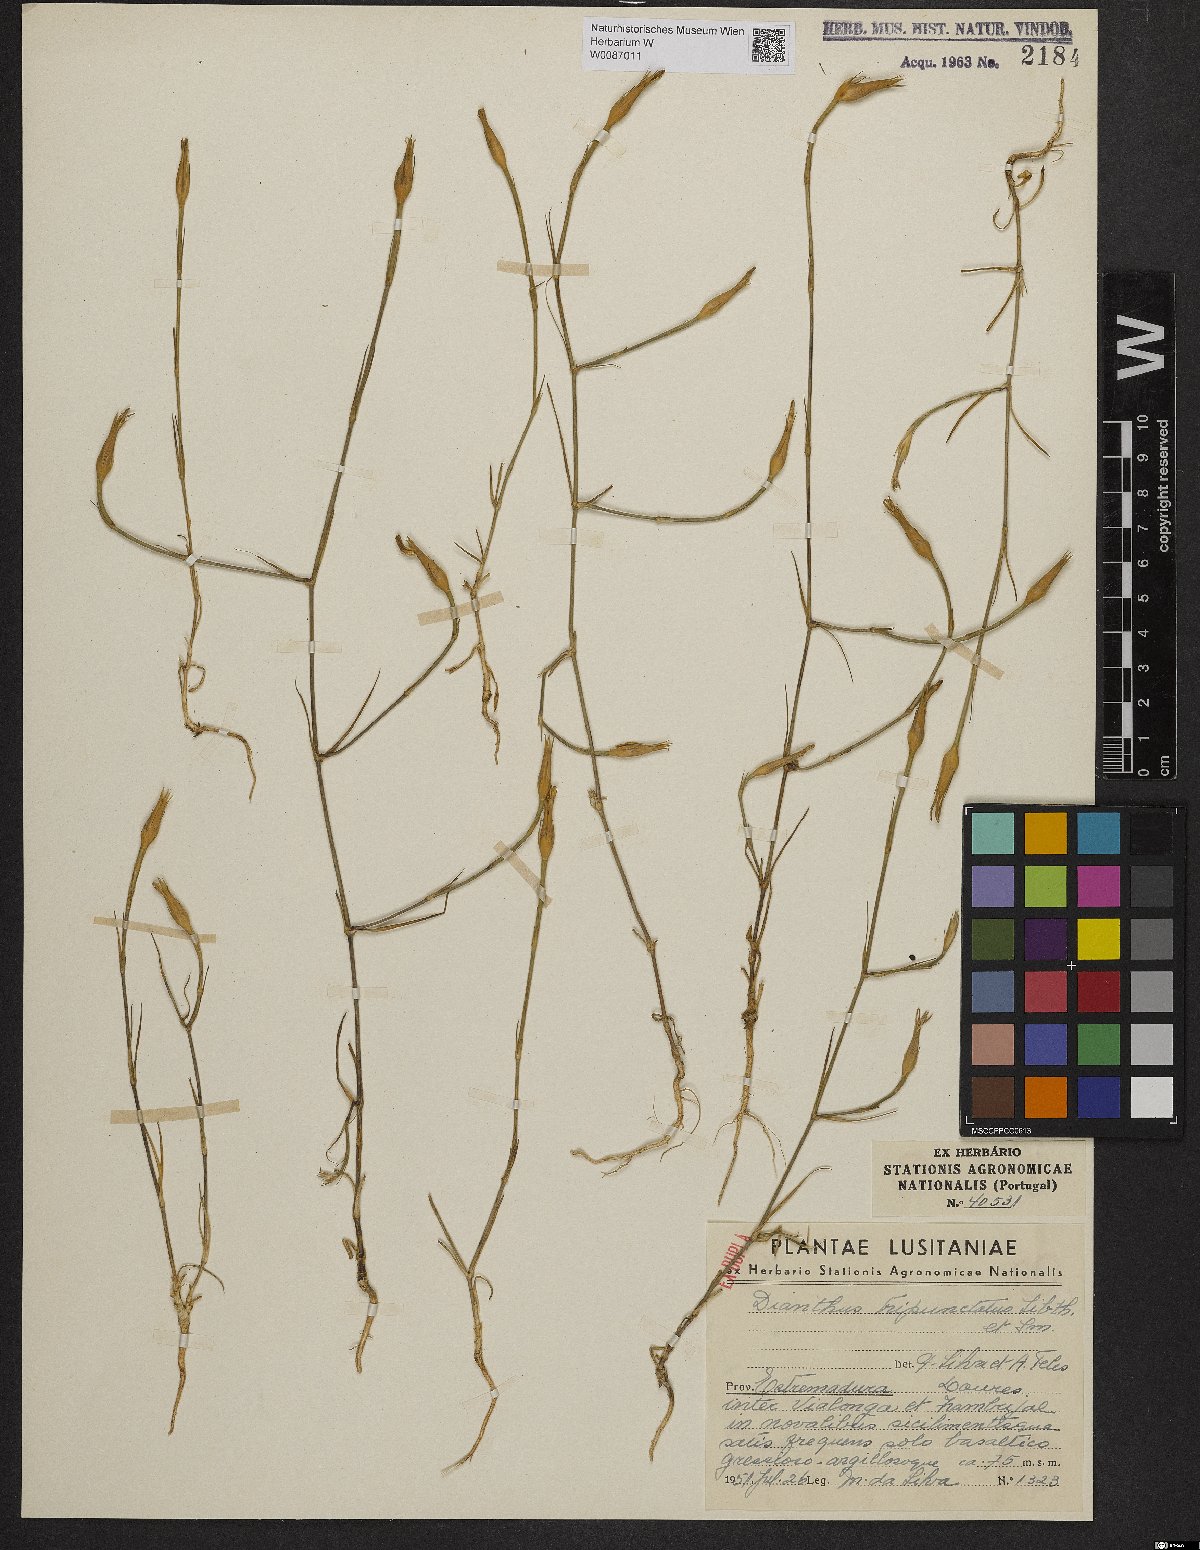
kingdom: Plantae
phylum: Tracheophyta
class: Magnoliopsida
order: Caryophyllales
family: Caryophyllaceae
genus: Dianthus
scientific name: Dianthus tripunctatus
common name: Three-spotted pink
